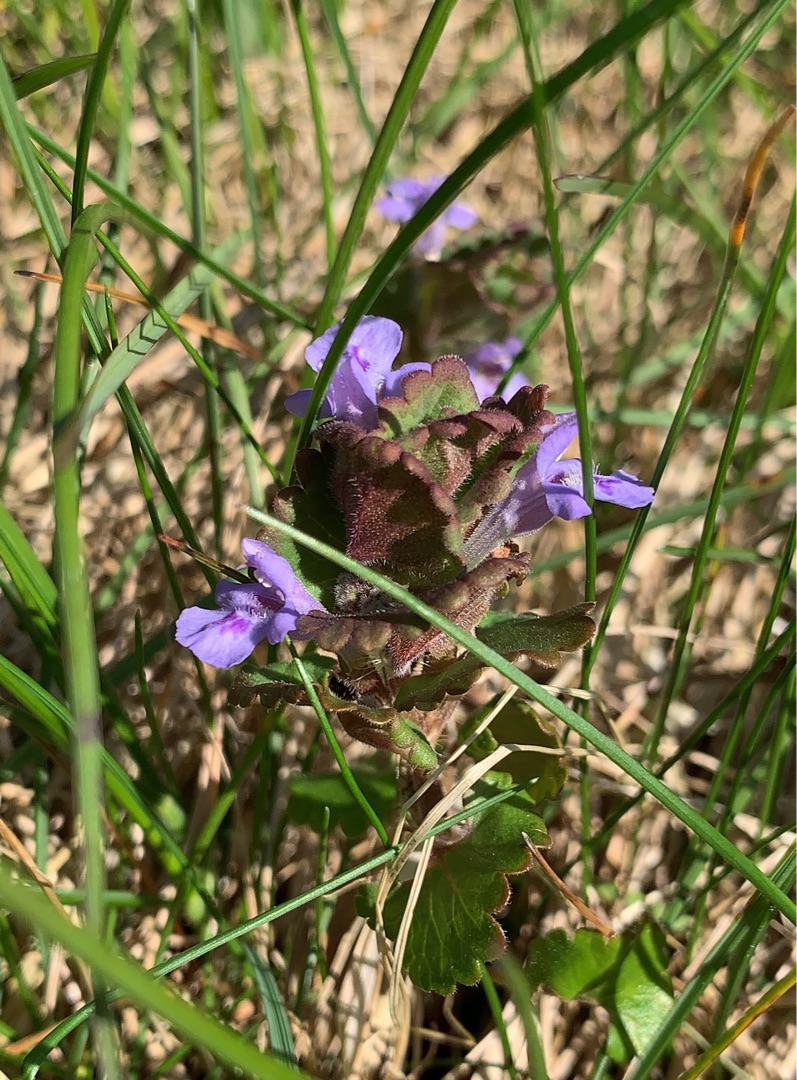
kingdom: Plantae
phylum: Tracheophyta
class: Magnoliopsida
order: Lamiales
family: Lamiaceae
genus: Glechoma
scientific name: Glechoma hederacea
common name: Korsknap
